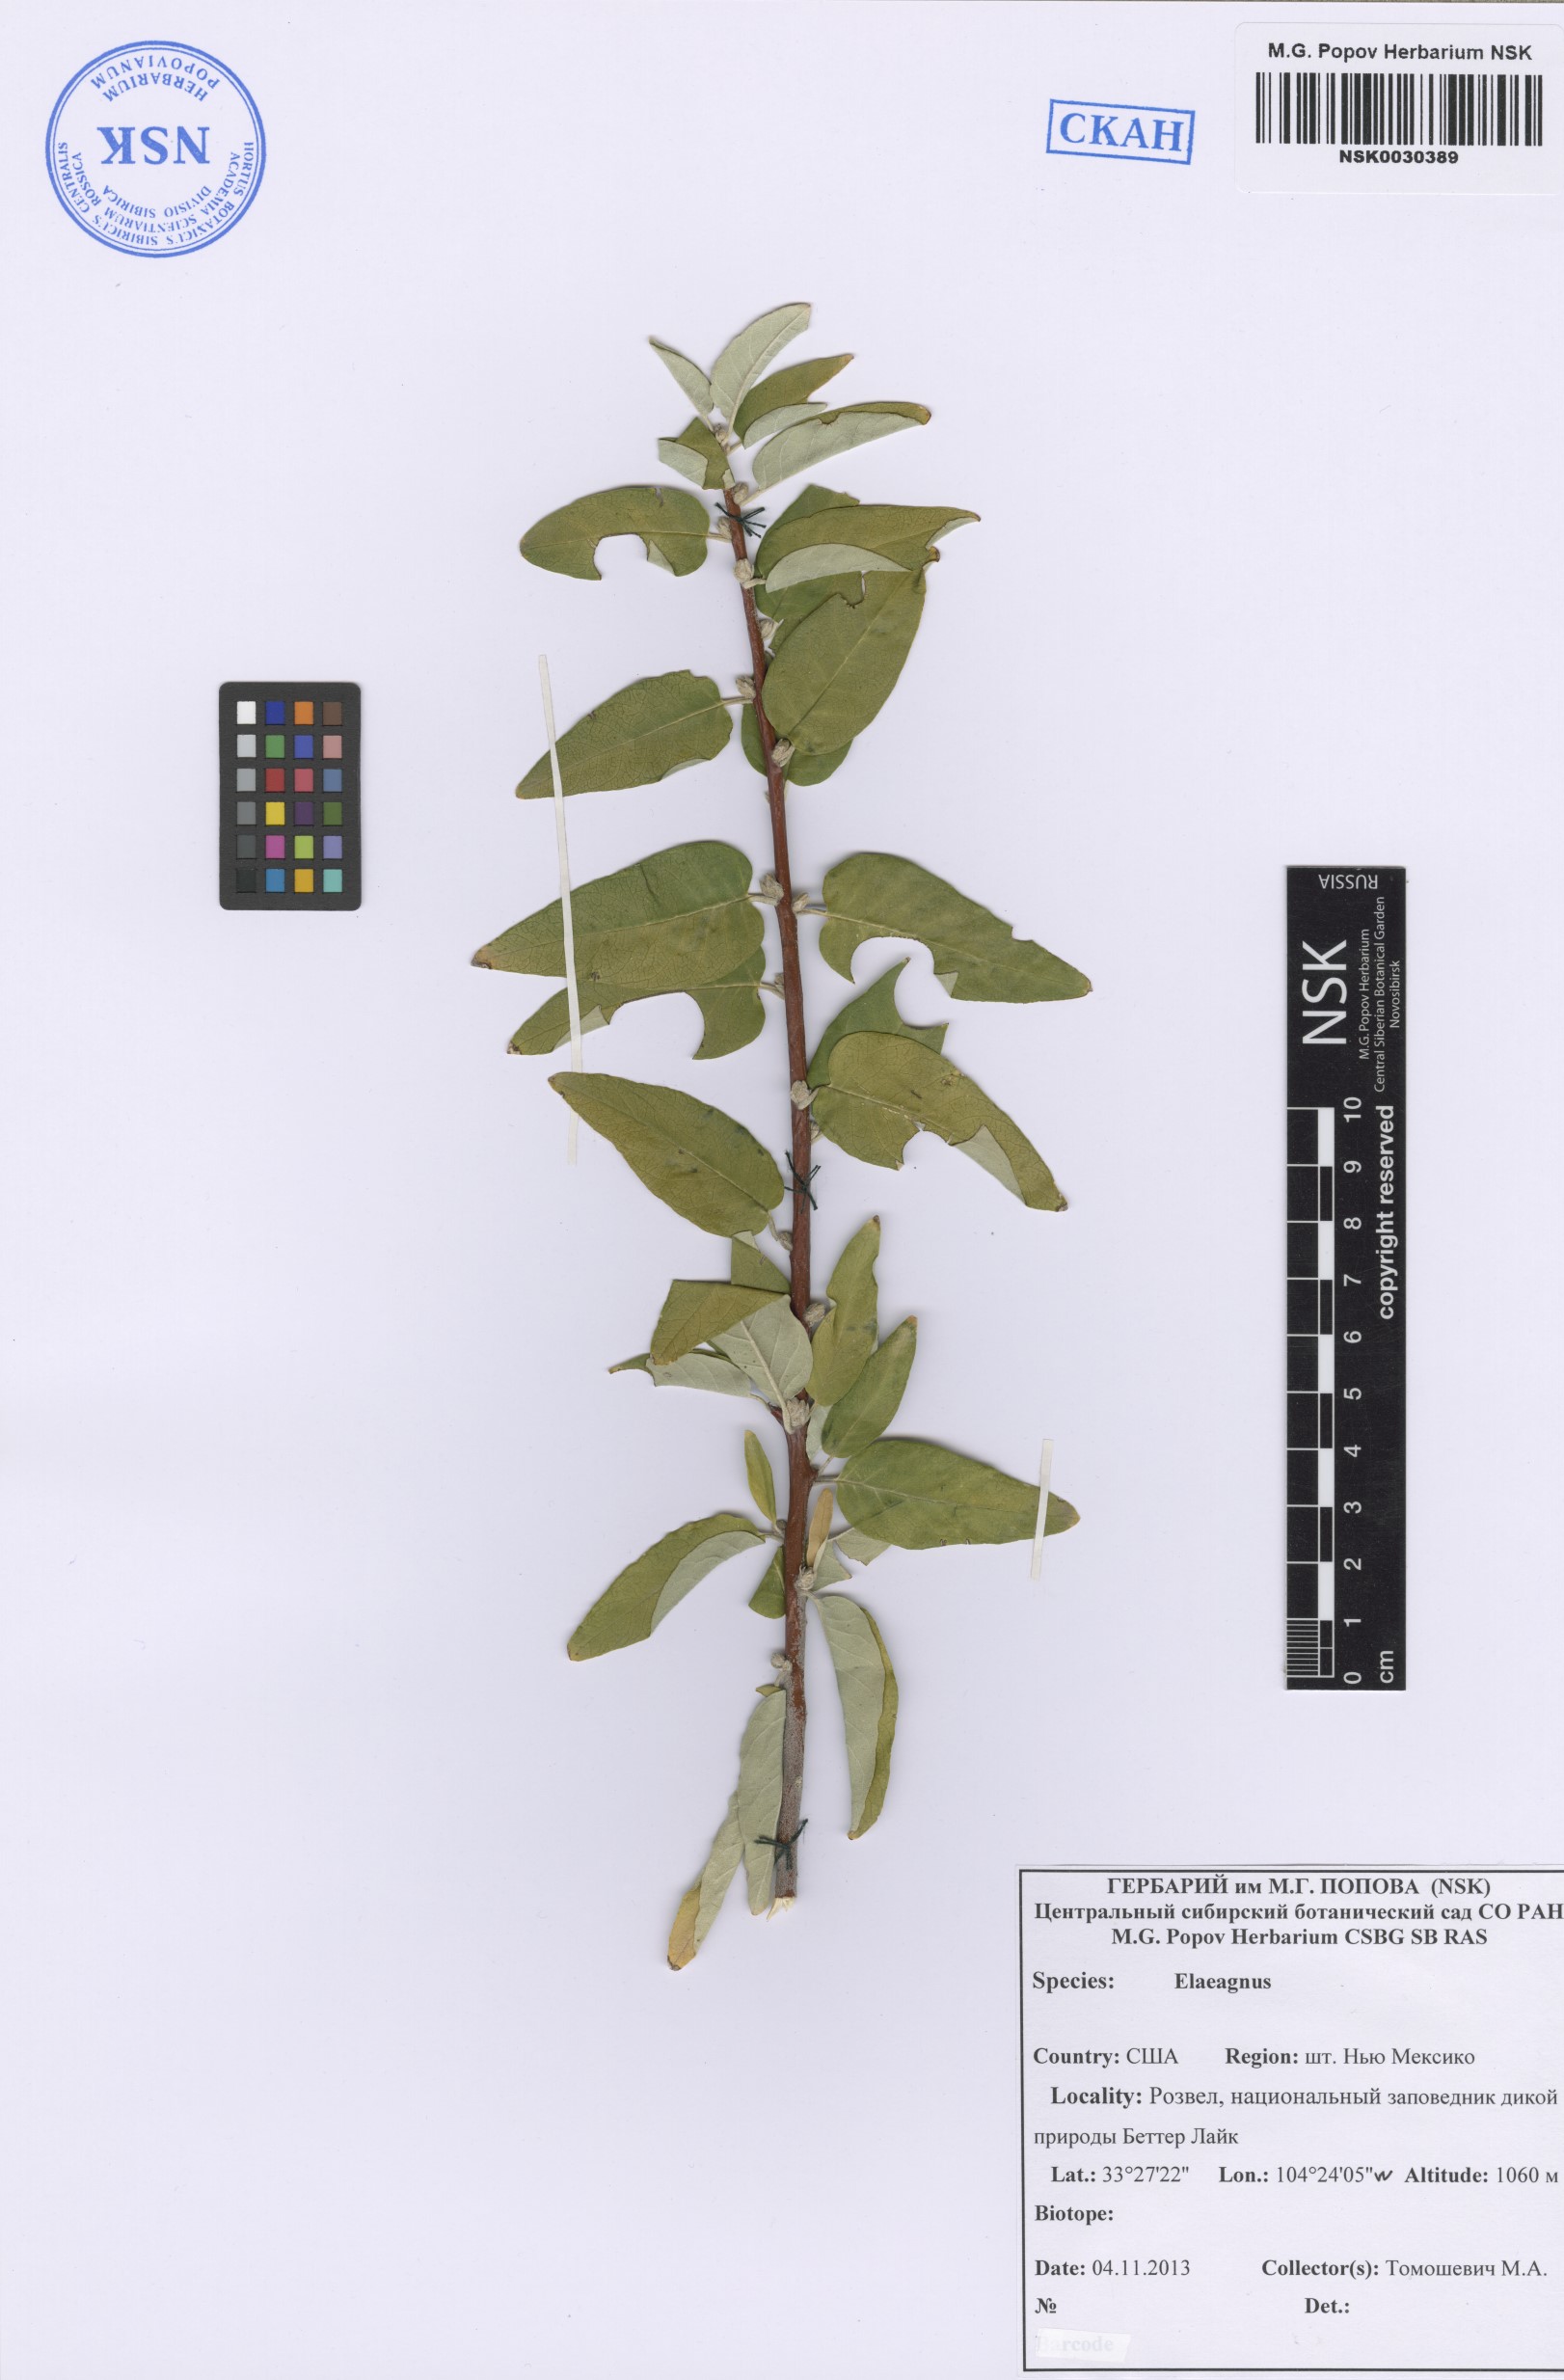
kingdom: Plantae
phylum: Tracheophyta
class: Magnoliopsida
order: Rosales
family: Elaeagnaceae
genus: Elaeagnus
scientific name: Elaeagnus
